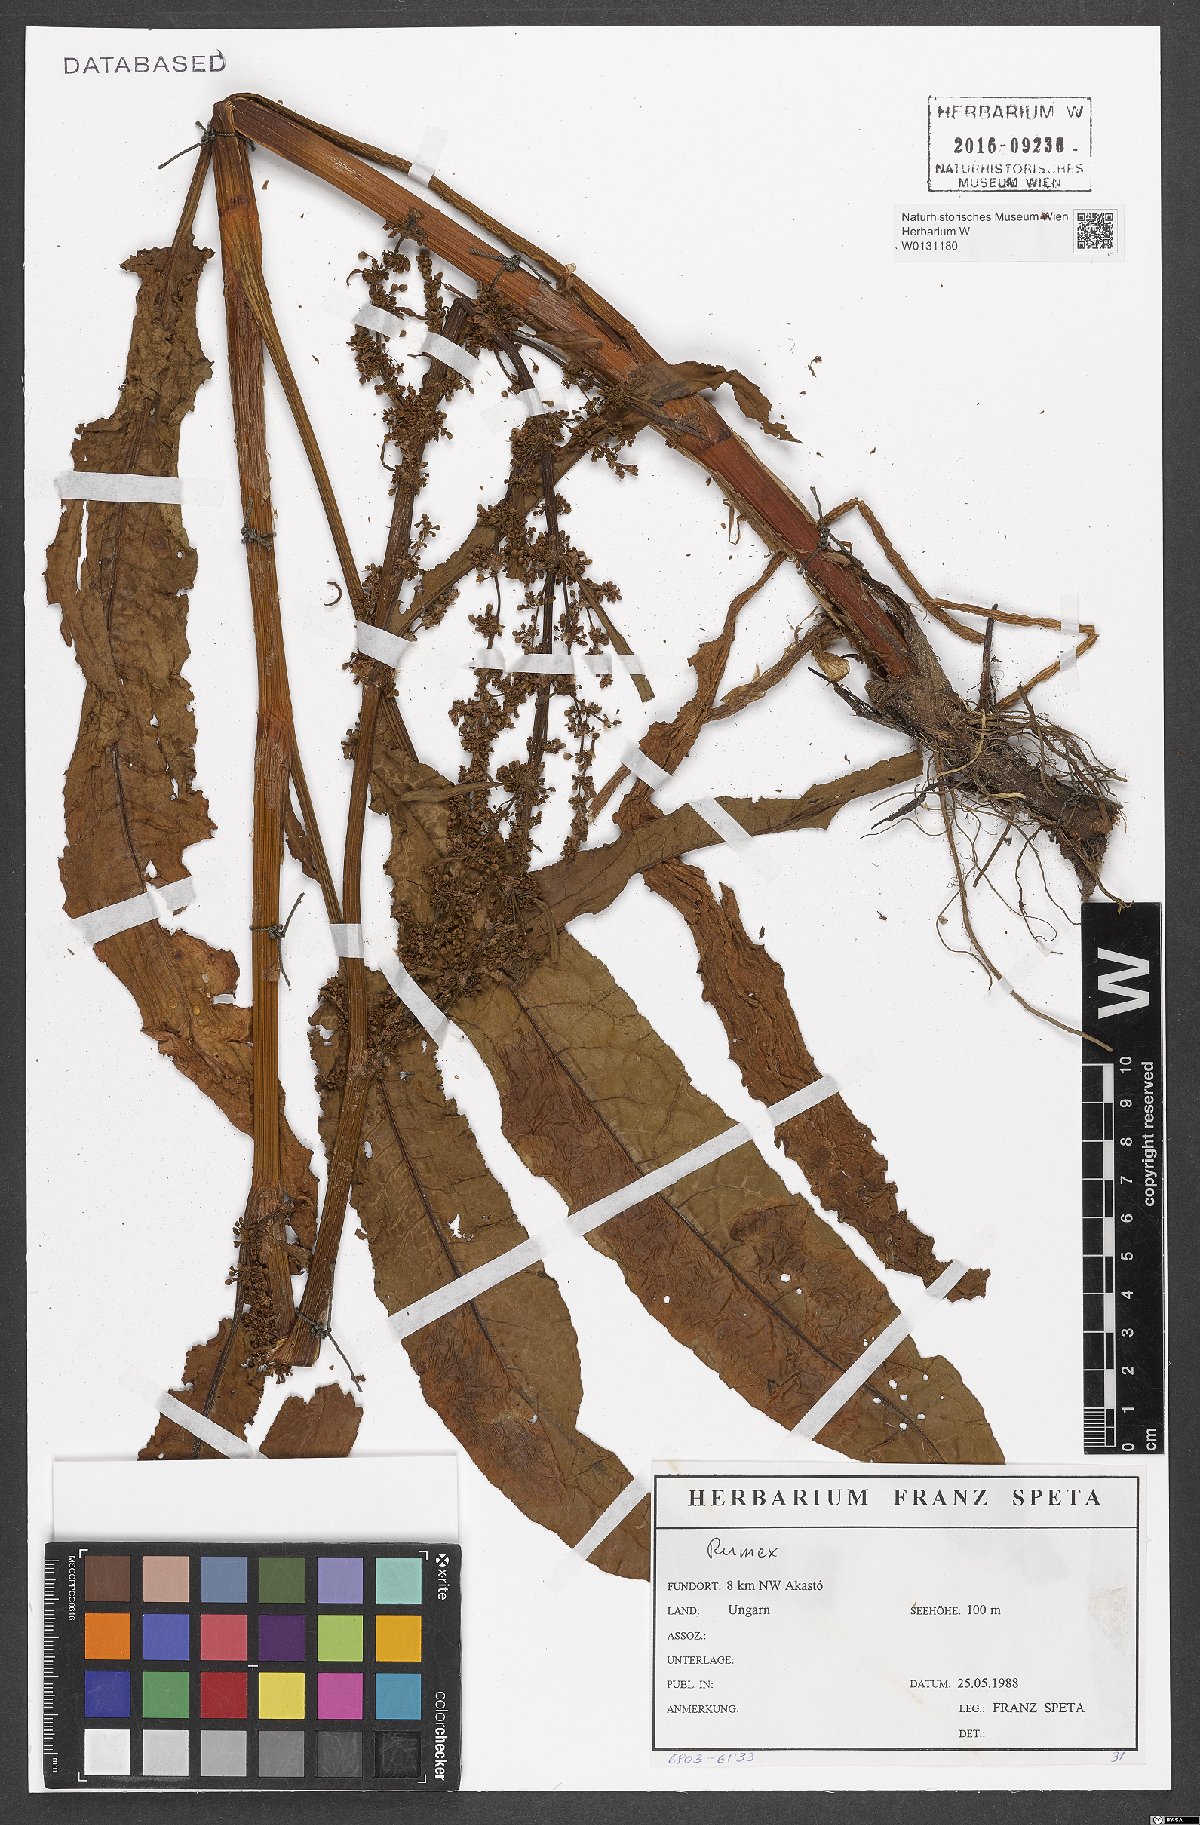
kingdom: Plantae
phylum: Tracheophyta
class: Magnoliopsida
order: Caryophyllales
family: Polygonaceae
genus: Rumex
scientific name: Rumex
